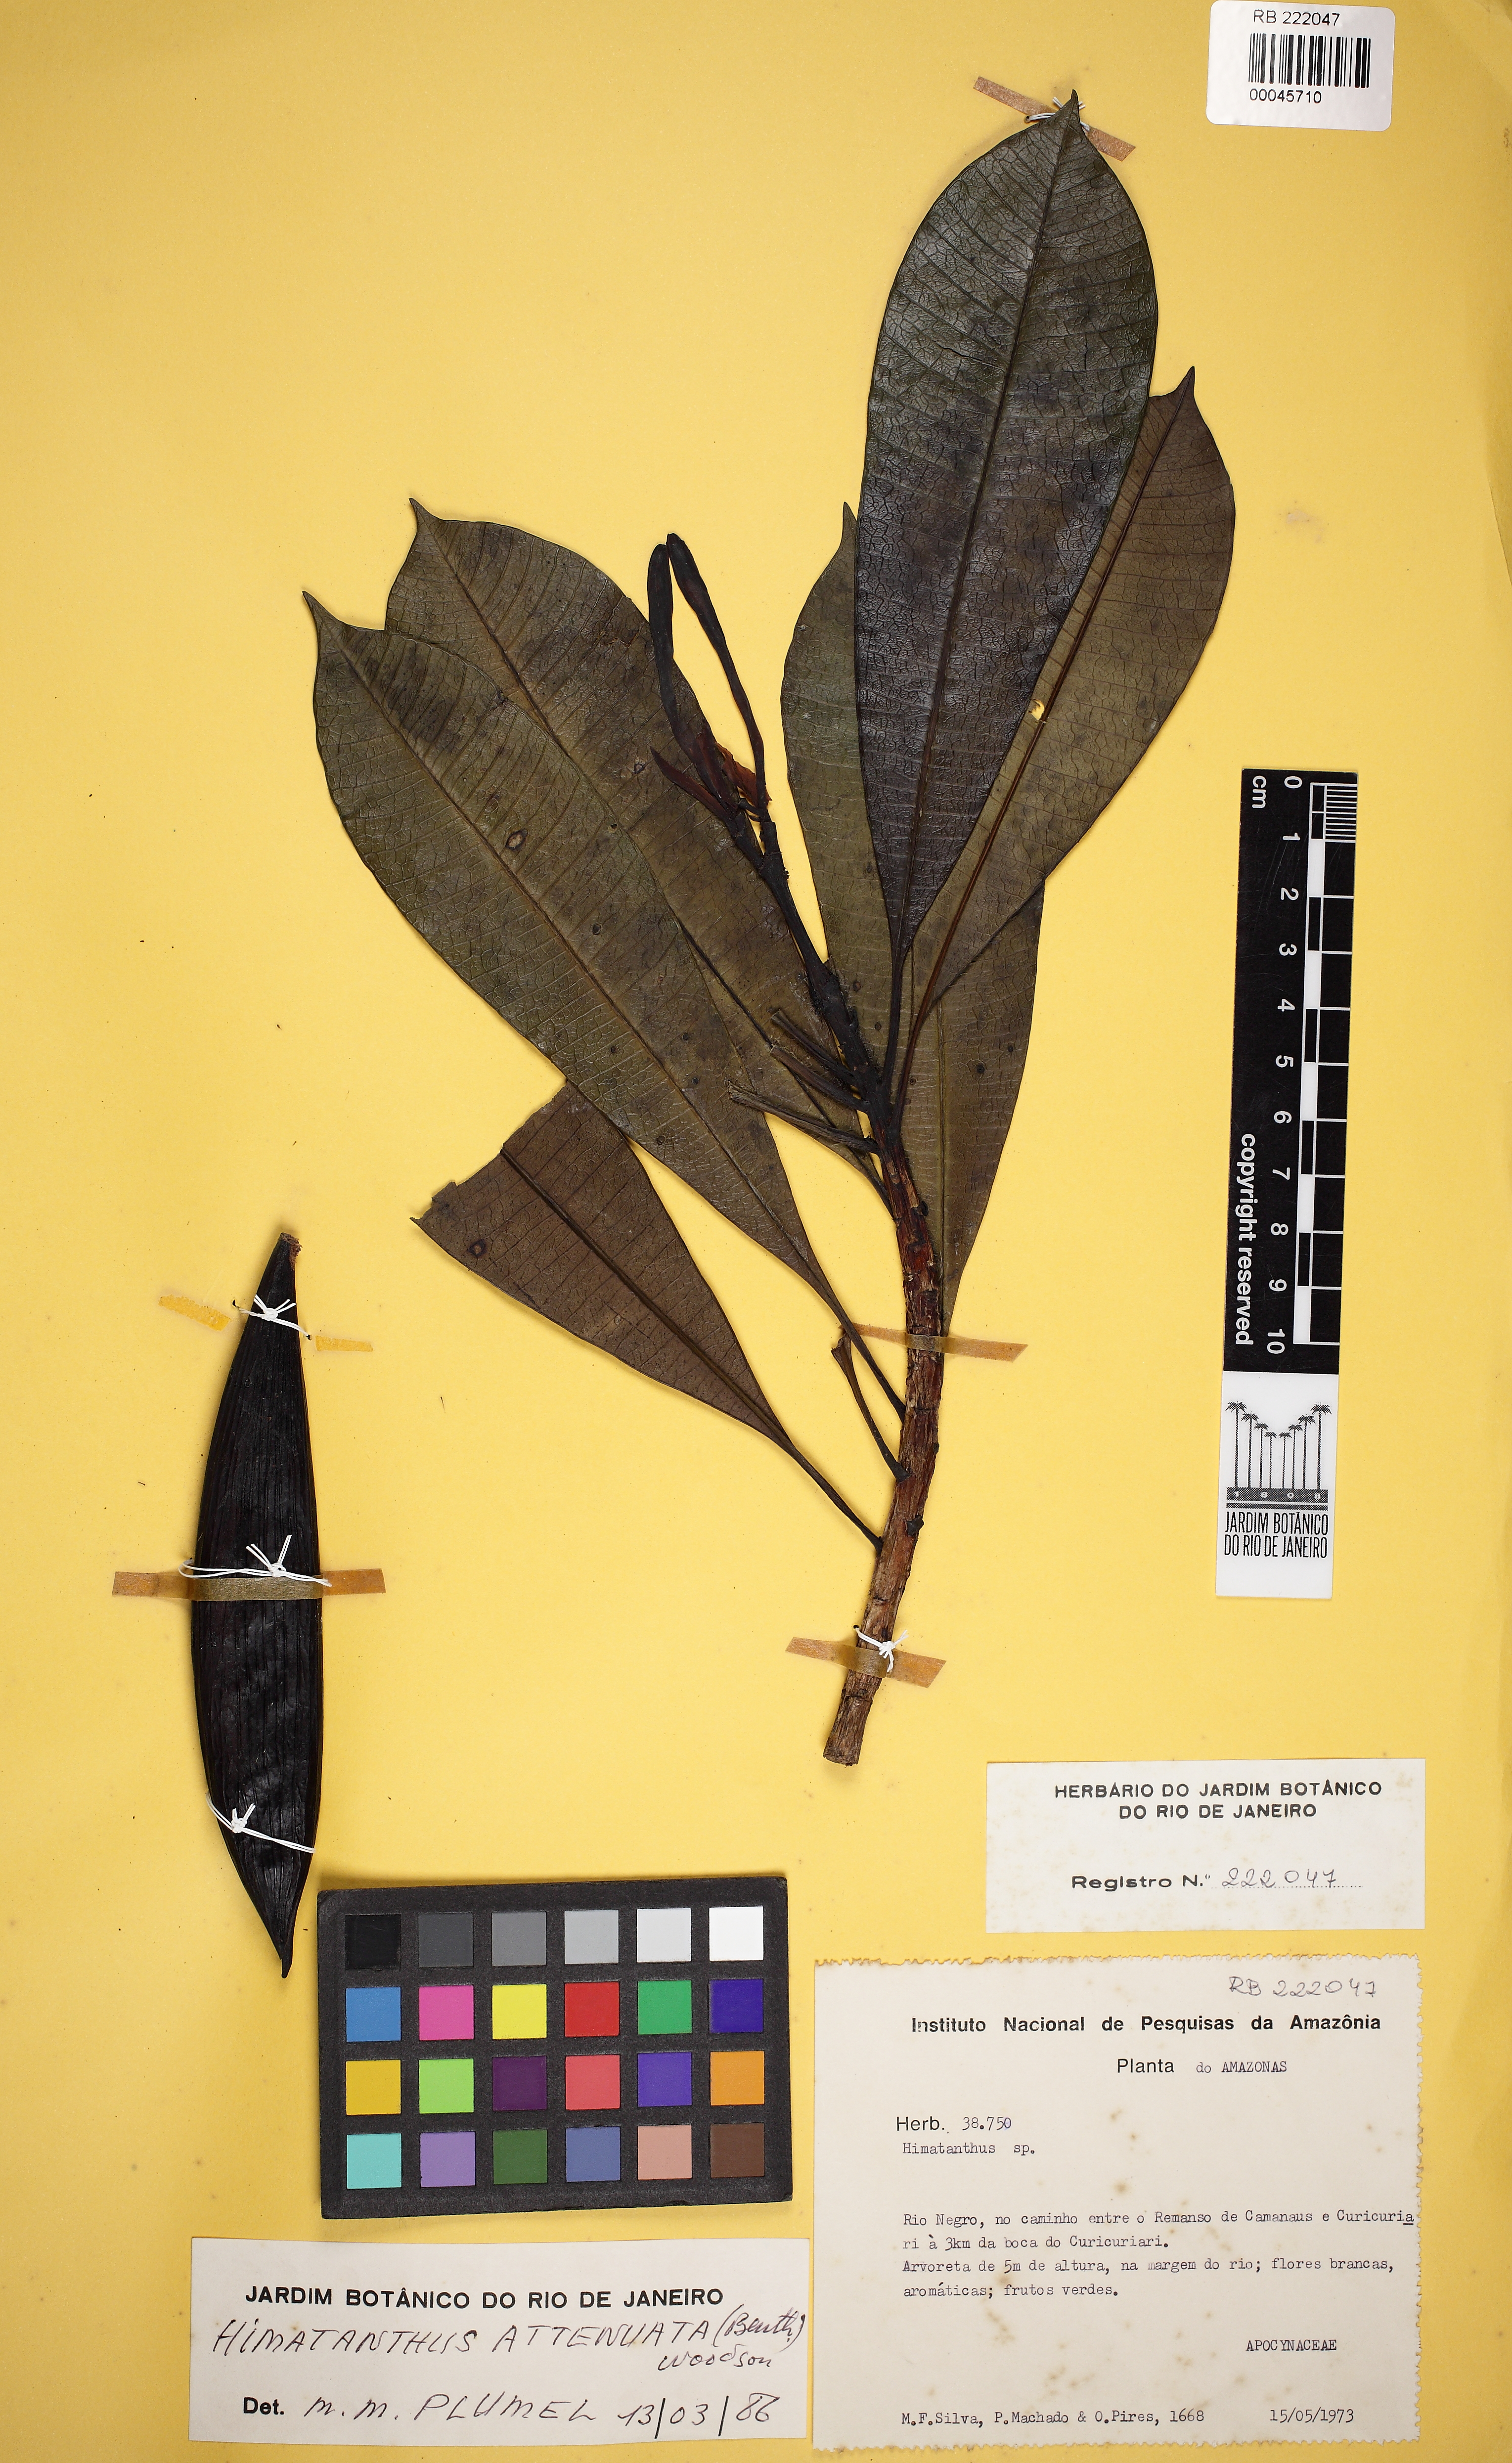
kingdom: Plantae
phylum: Tracheophyta
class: Magnoliopsida
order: Gentianales
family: Apocynaceae
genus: Himatanthus
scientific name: Himatanthus attenuatus
